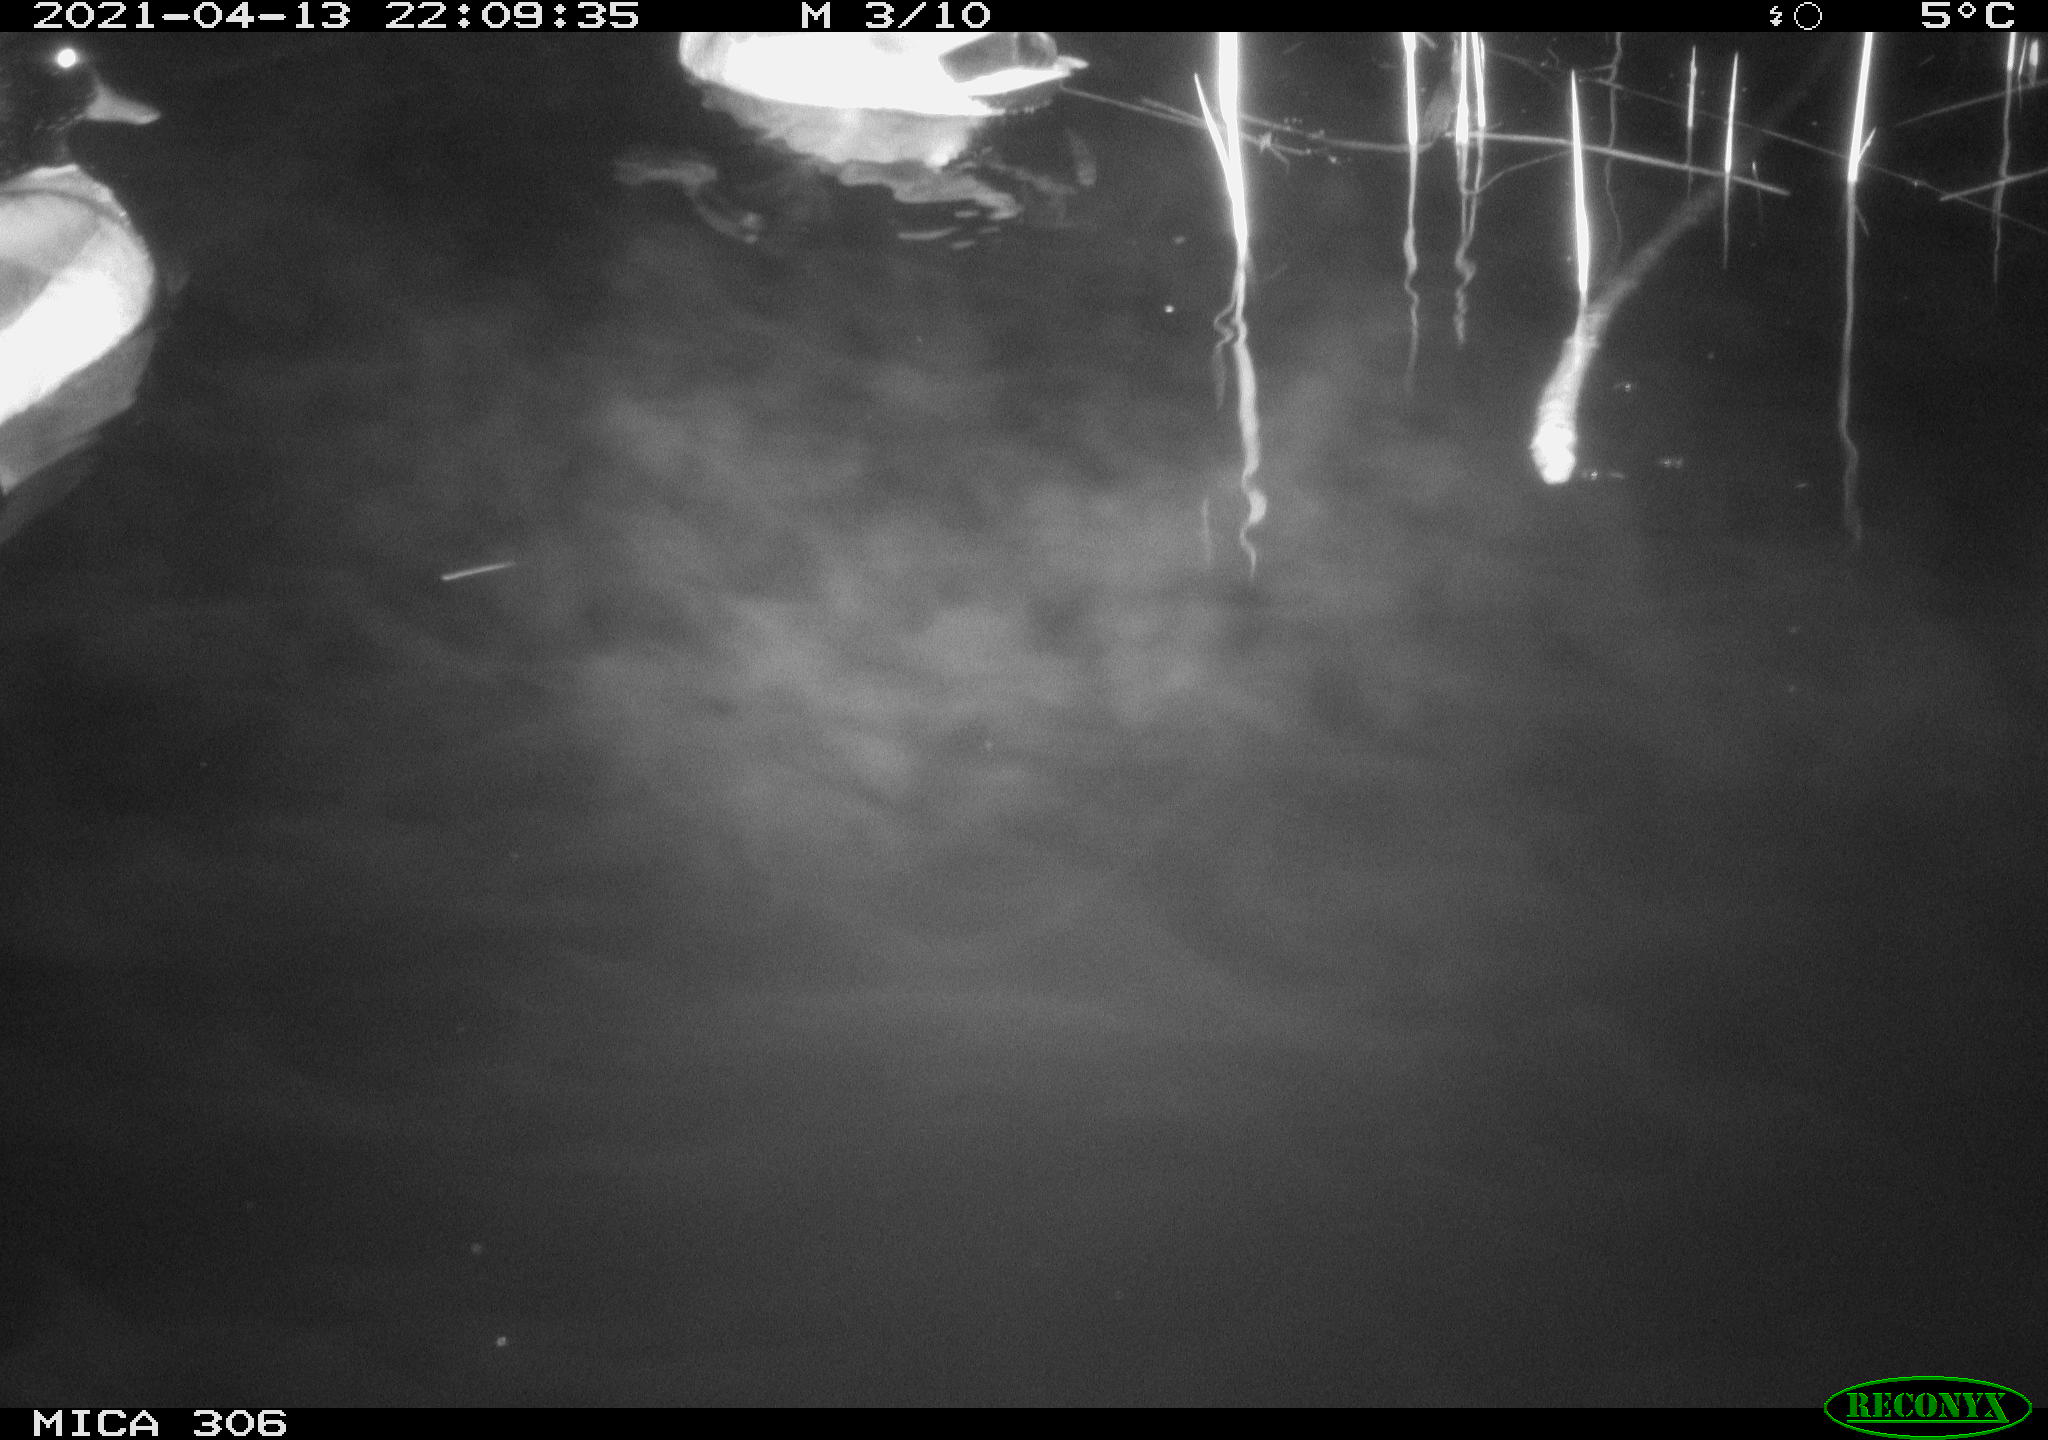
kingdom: Animalia
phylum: Chordata
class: Aves
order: Anseriformes
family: Anatidae
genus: Anas
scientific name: Anas
